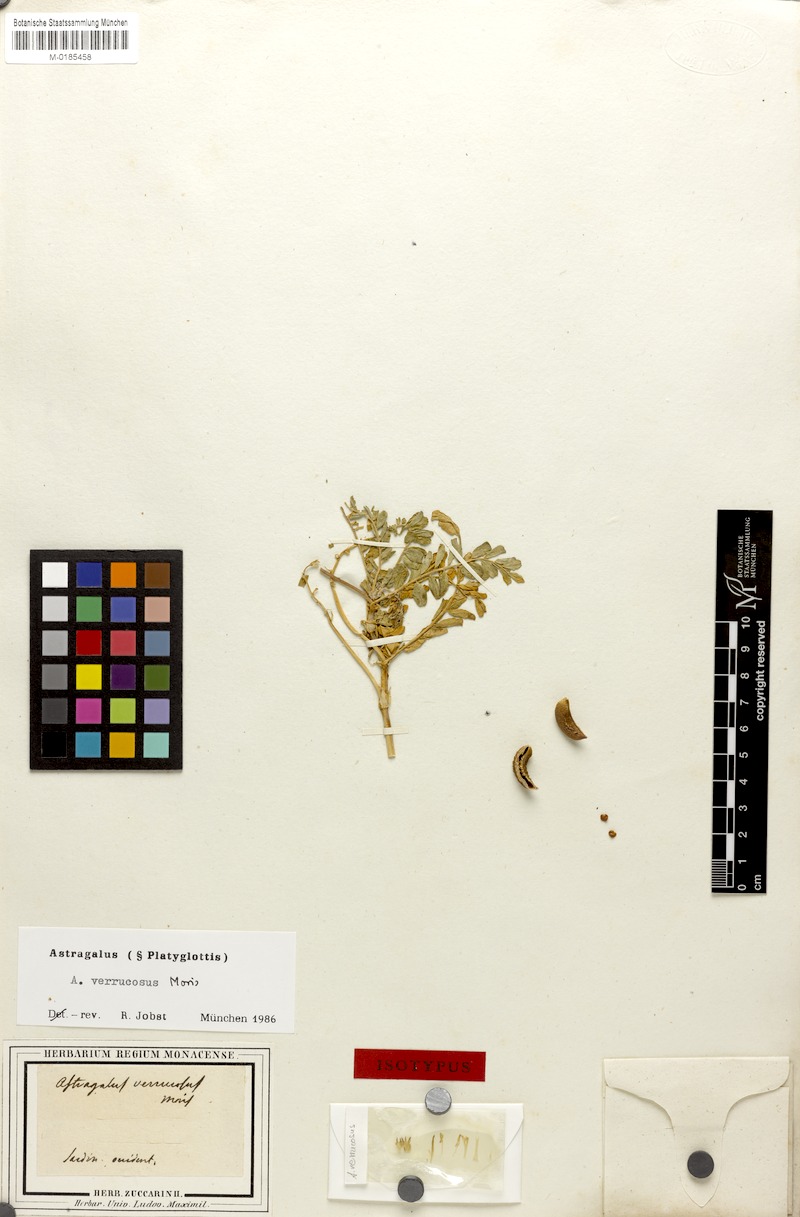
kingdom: Plantae
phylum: Tracheophyta
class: Magnoliopsida
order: Fabales
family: Fabaceae
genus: Astragalus
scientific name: Astragalus verrucosus
